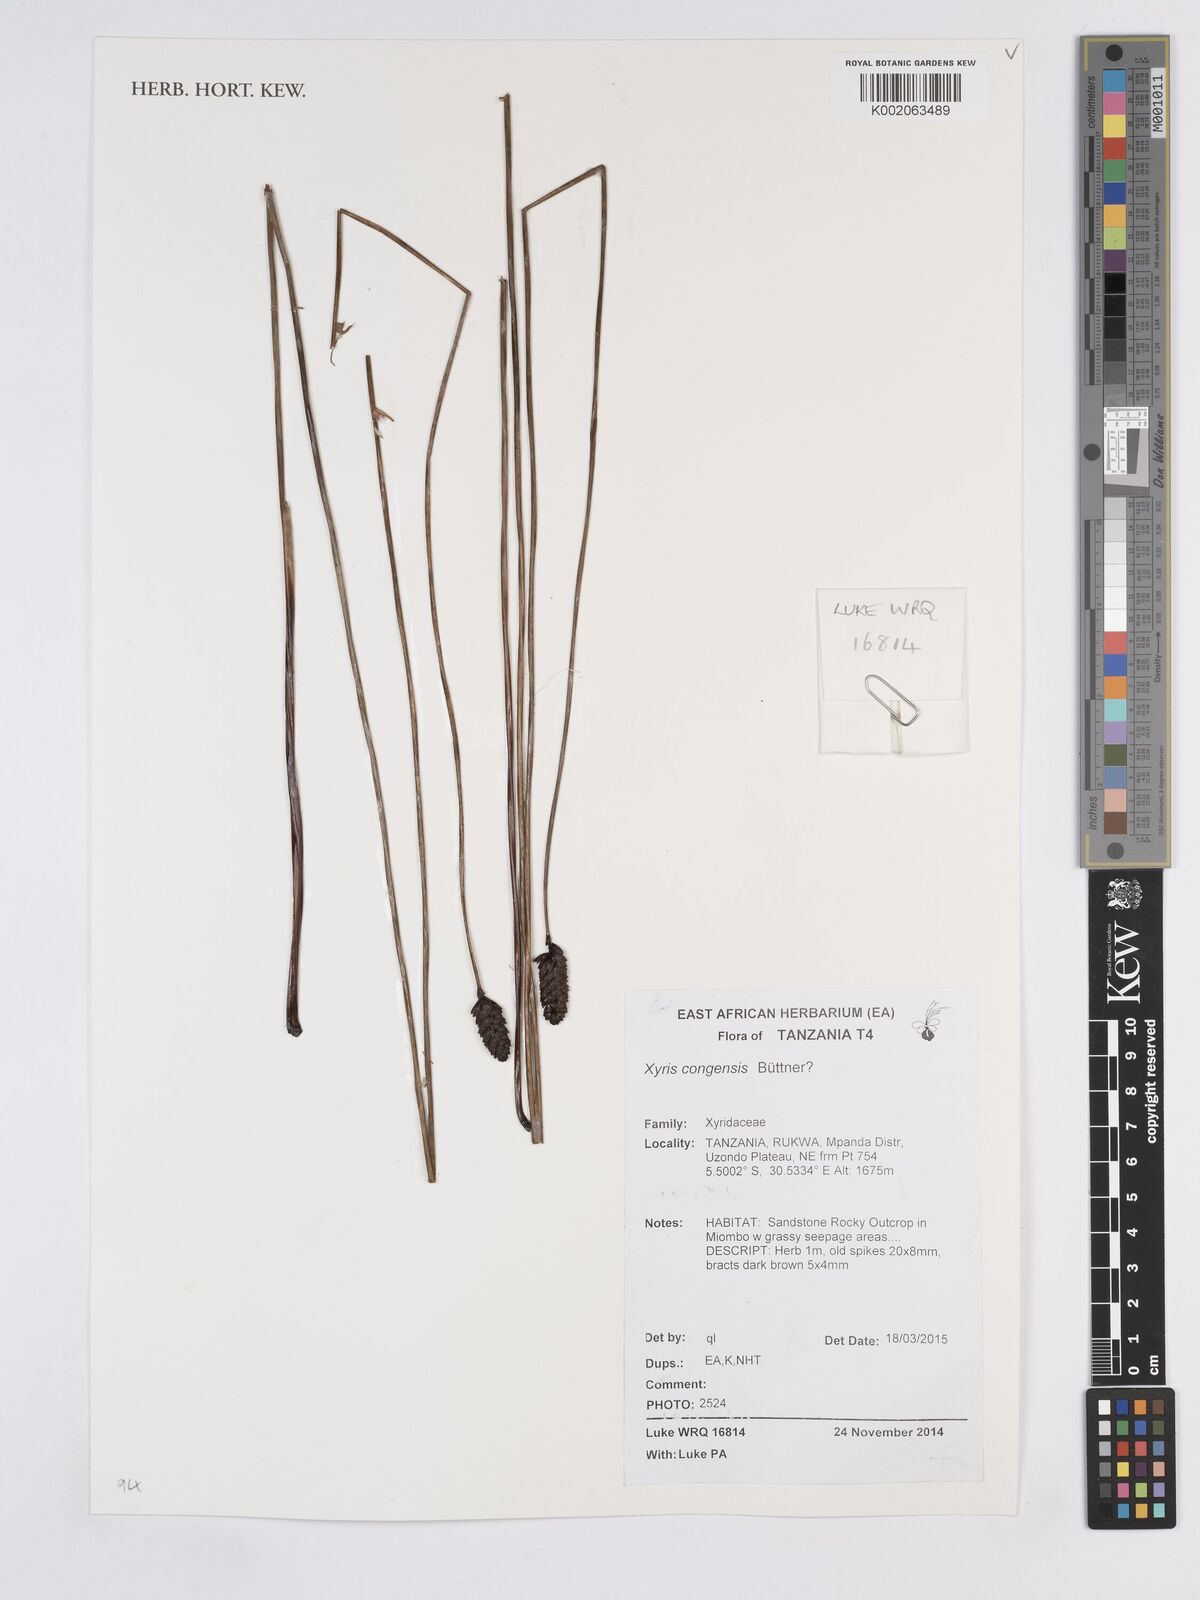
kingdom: Plantae
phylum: Tracheophyta
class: Liliopsida
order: Poales
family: Xyridaceae
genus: Xyris
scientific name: Xyris congensis
